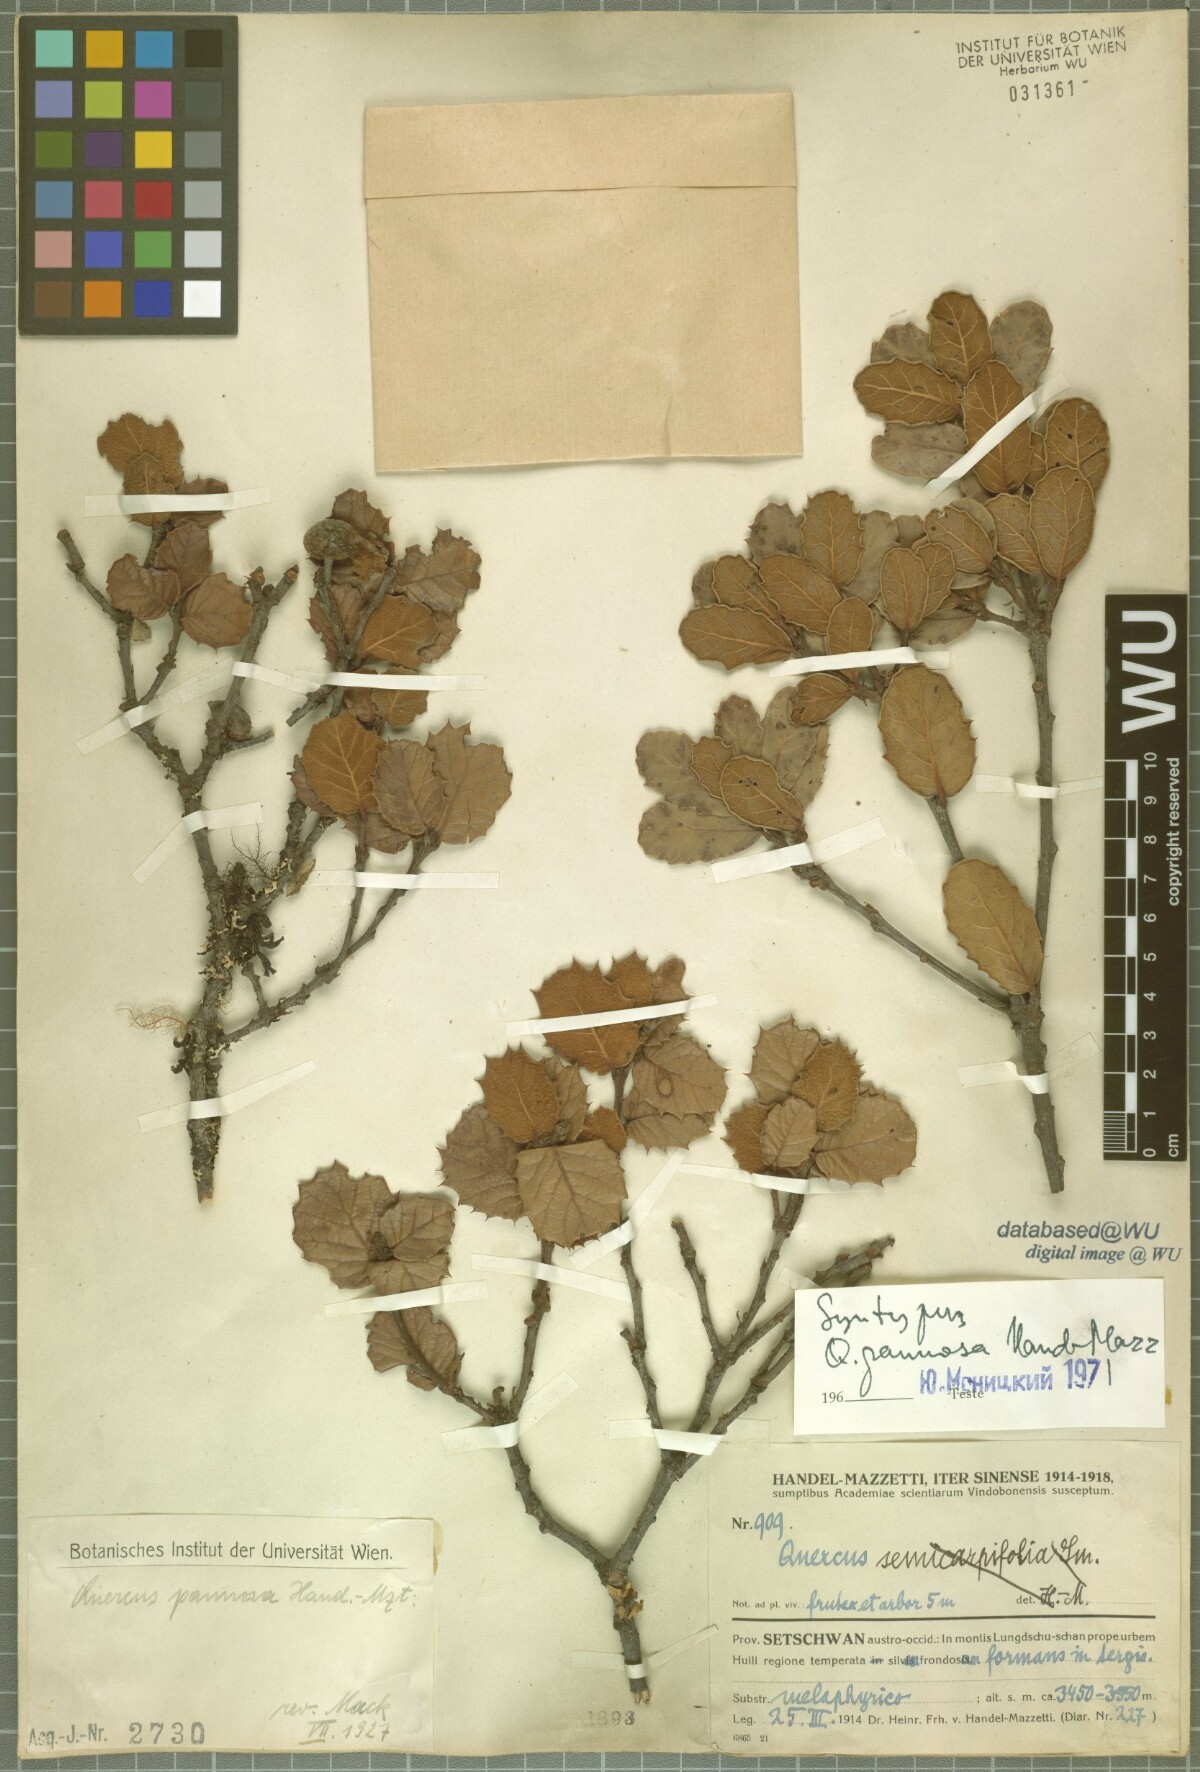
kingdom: Plantae
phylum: Tracheophyta
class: Magnoliopsida
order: Fagales
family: Fagaceae
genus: Quercus
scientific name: Quercus pannosa
